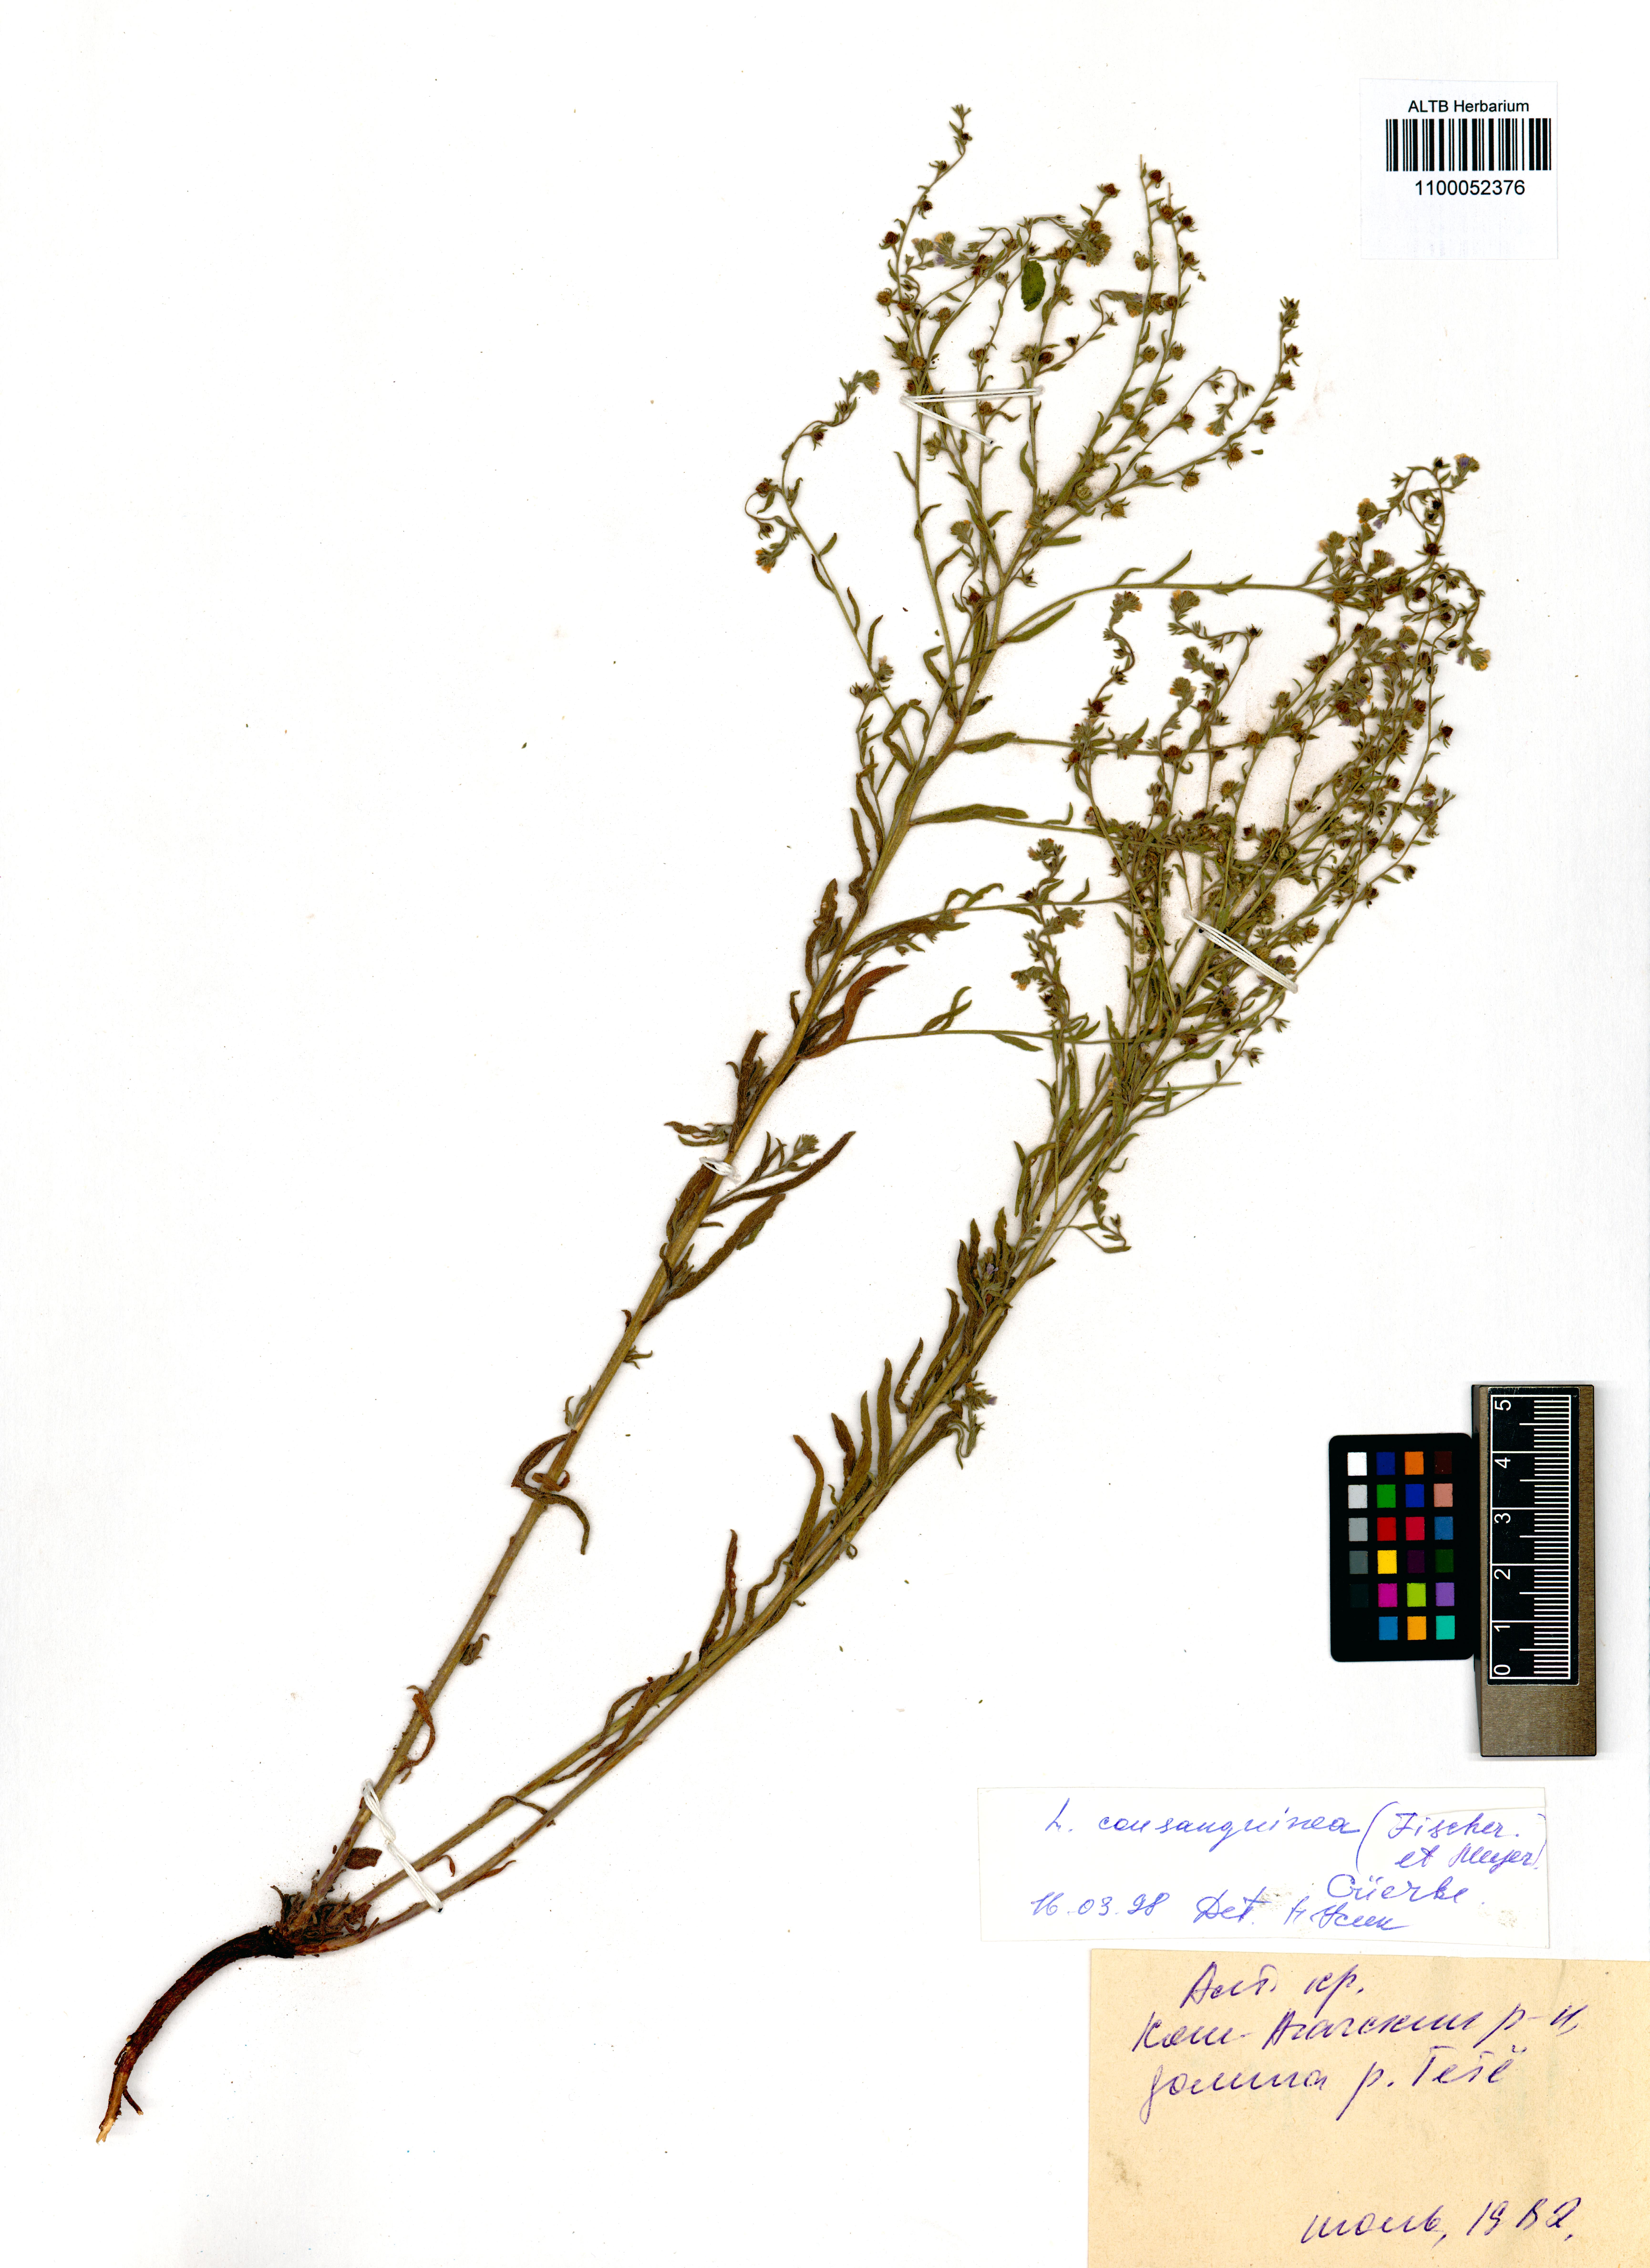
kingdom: Plantae
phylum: Tracheophyta
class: Magnoliopsida
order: Boraginales
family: Boraginaceae
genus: Lappula
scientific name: Lappula squarrosa
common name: European stickseed
